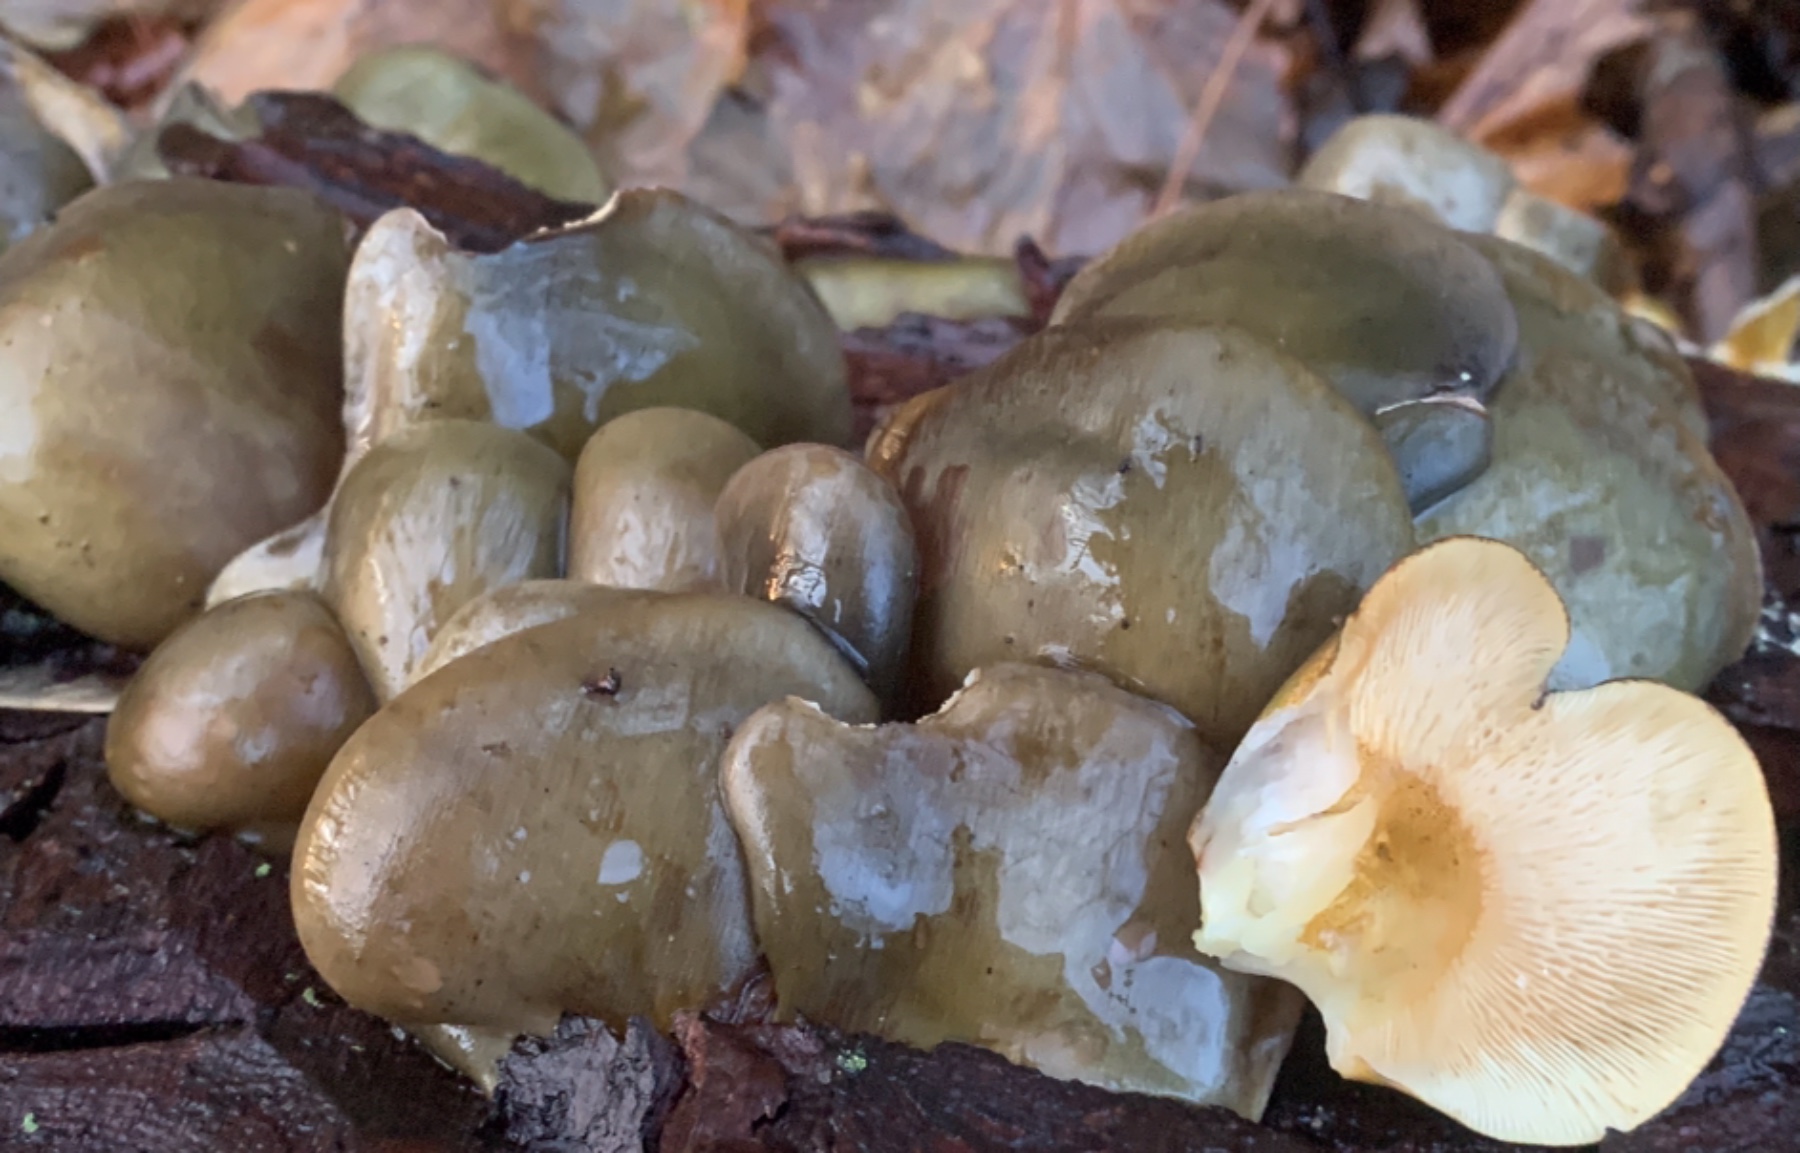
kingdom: Fungi
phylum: Basidiomycota
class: Agaricomycetes
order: Agaricales
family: Sarcomyxaceae
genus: Sarcomyxa
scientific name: Sarcomyxa serotina
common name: gummihat
